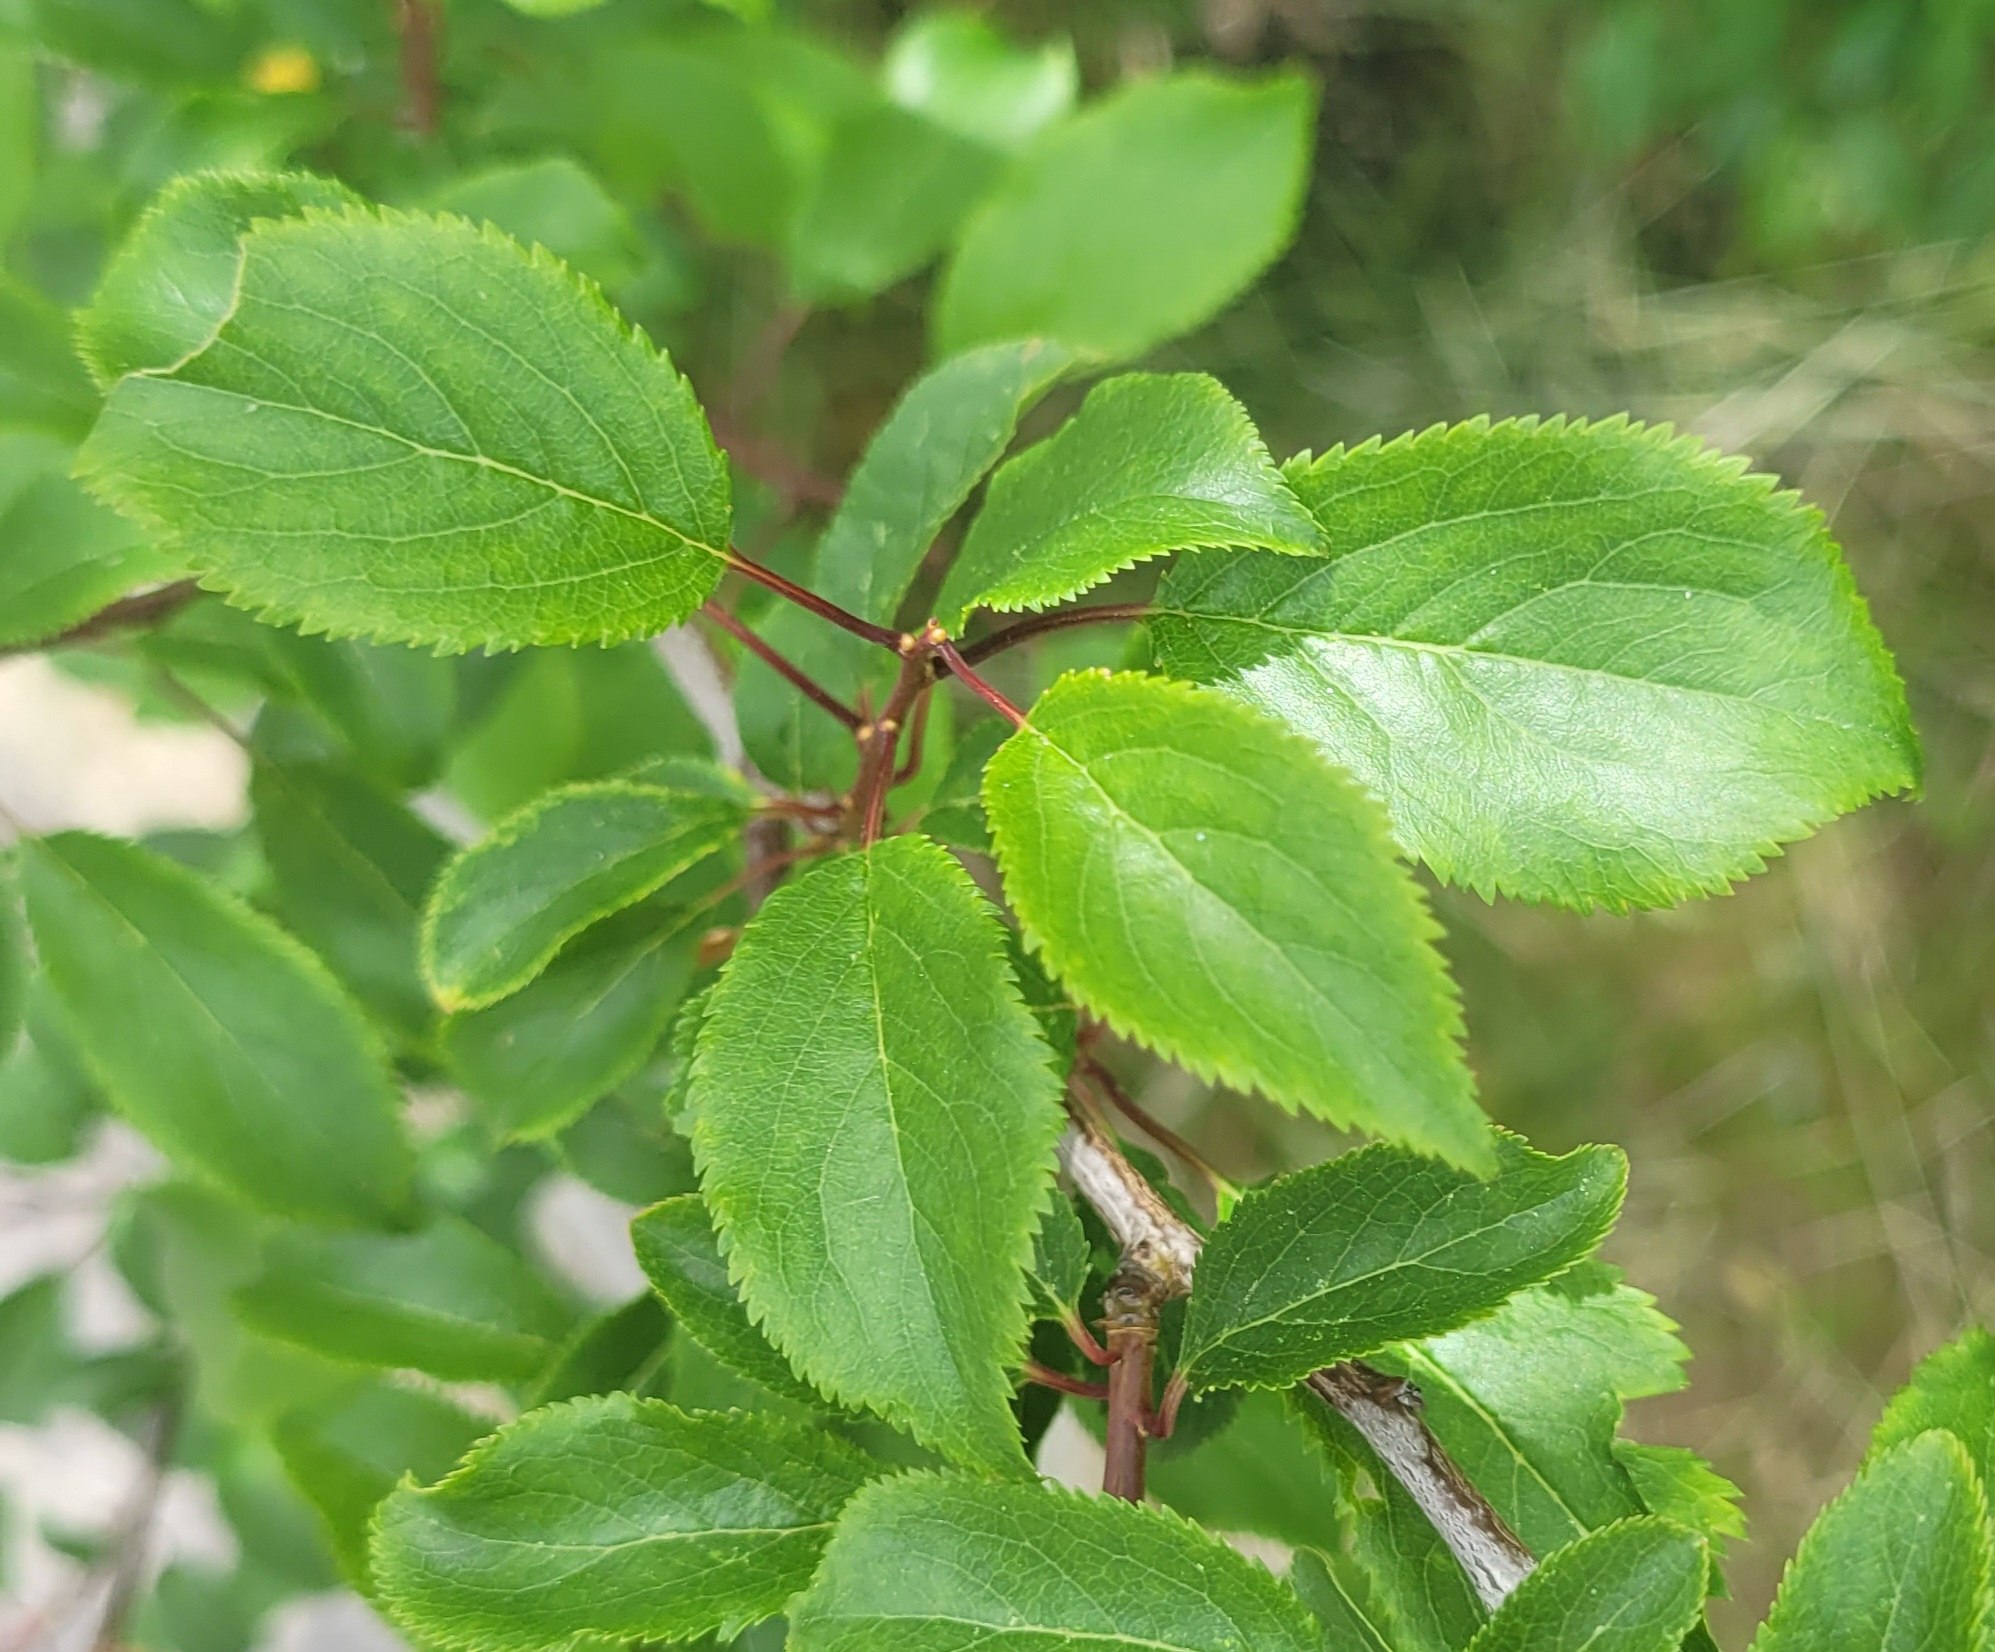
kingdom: Plantae
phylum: Tracheophyta
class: Magnoliopsida
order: Rosales
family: Rosaceae
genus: Prunus
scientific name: Prunus domestica
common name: Blomme
